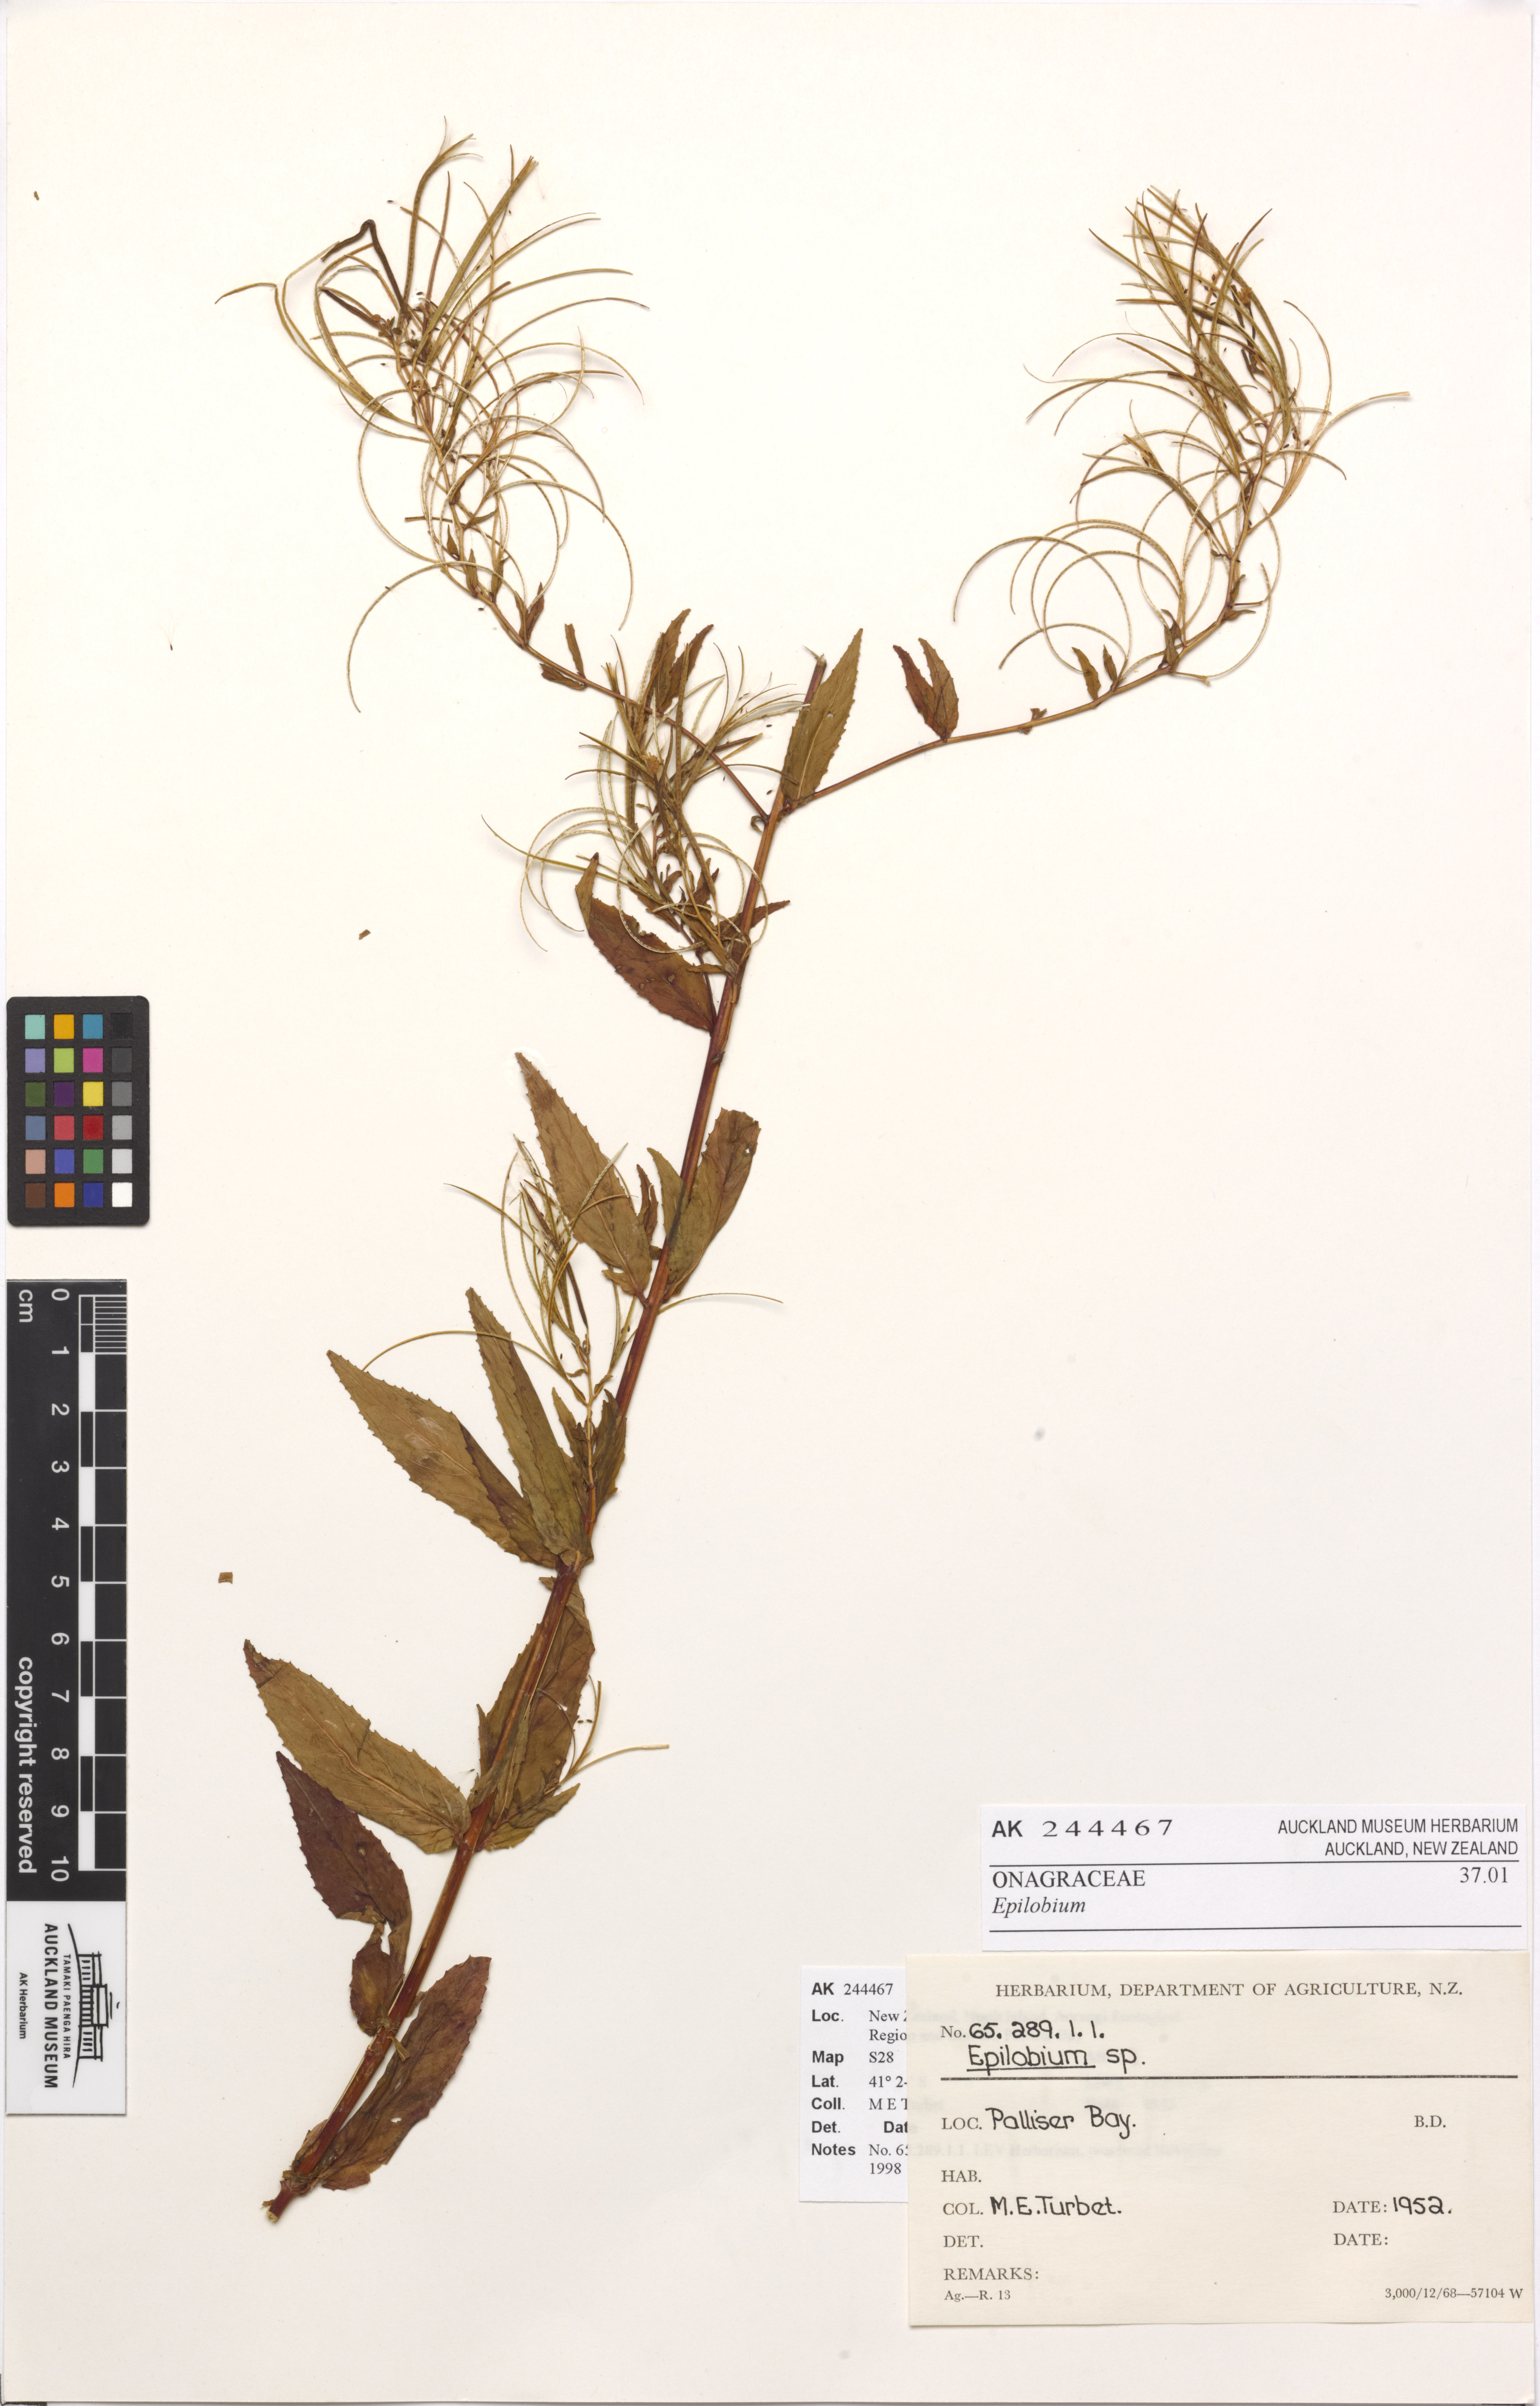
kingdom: Plantae
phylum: Tracheophyta
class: Magnoliopsida
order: Myrtales
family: Onagraceae
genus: Epilobium
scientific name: Epilobium ciliatum
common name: American willowherb
